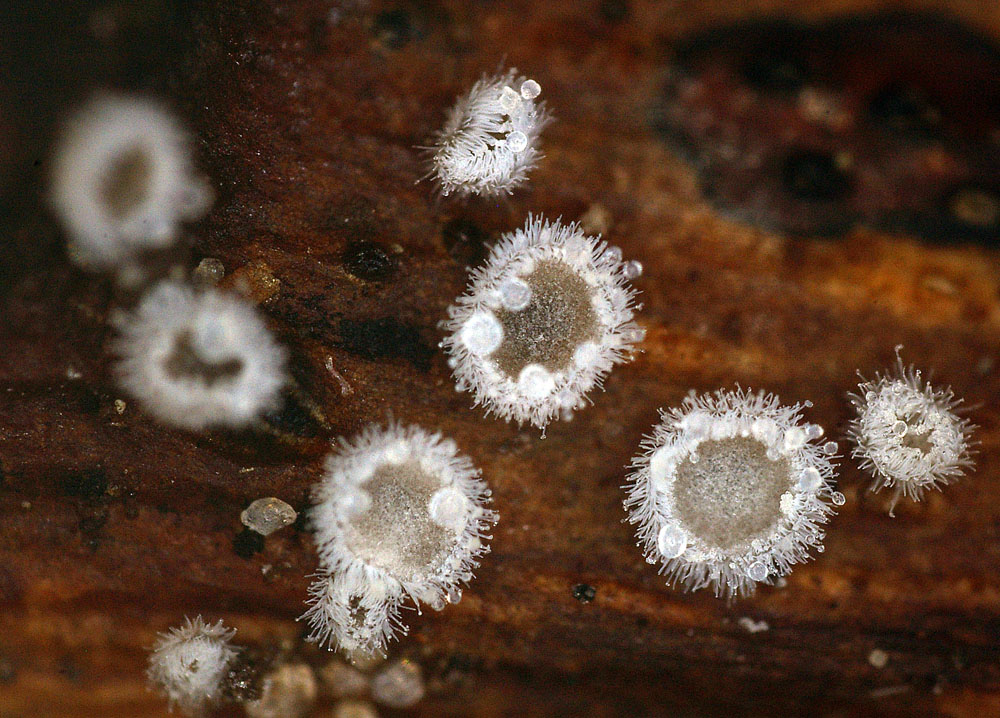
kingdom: Fungi
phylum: Basidiomycota
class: Agaricomycetes
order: Agaricales
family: Niaceae
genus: Lachnella
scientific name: Lachnella alboviolascens
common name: grå frynserede
